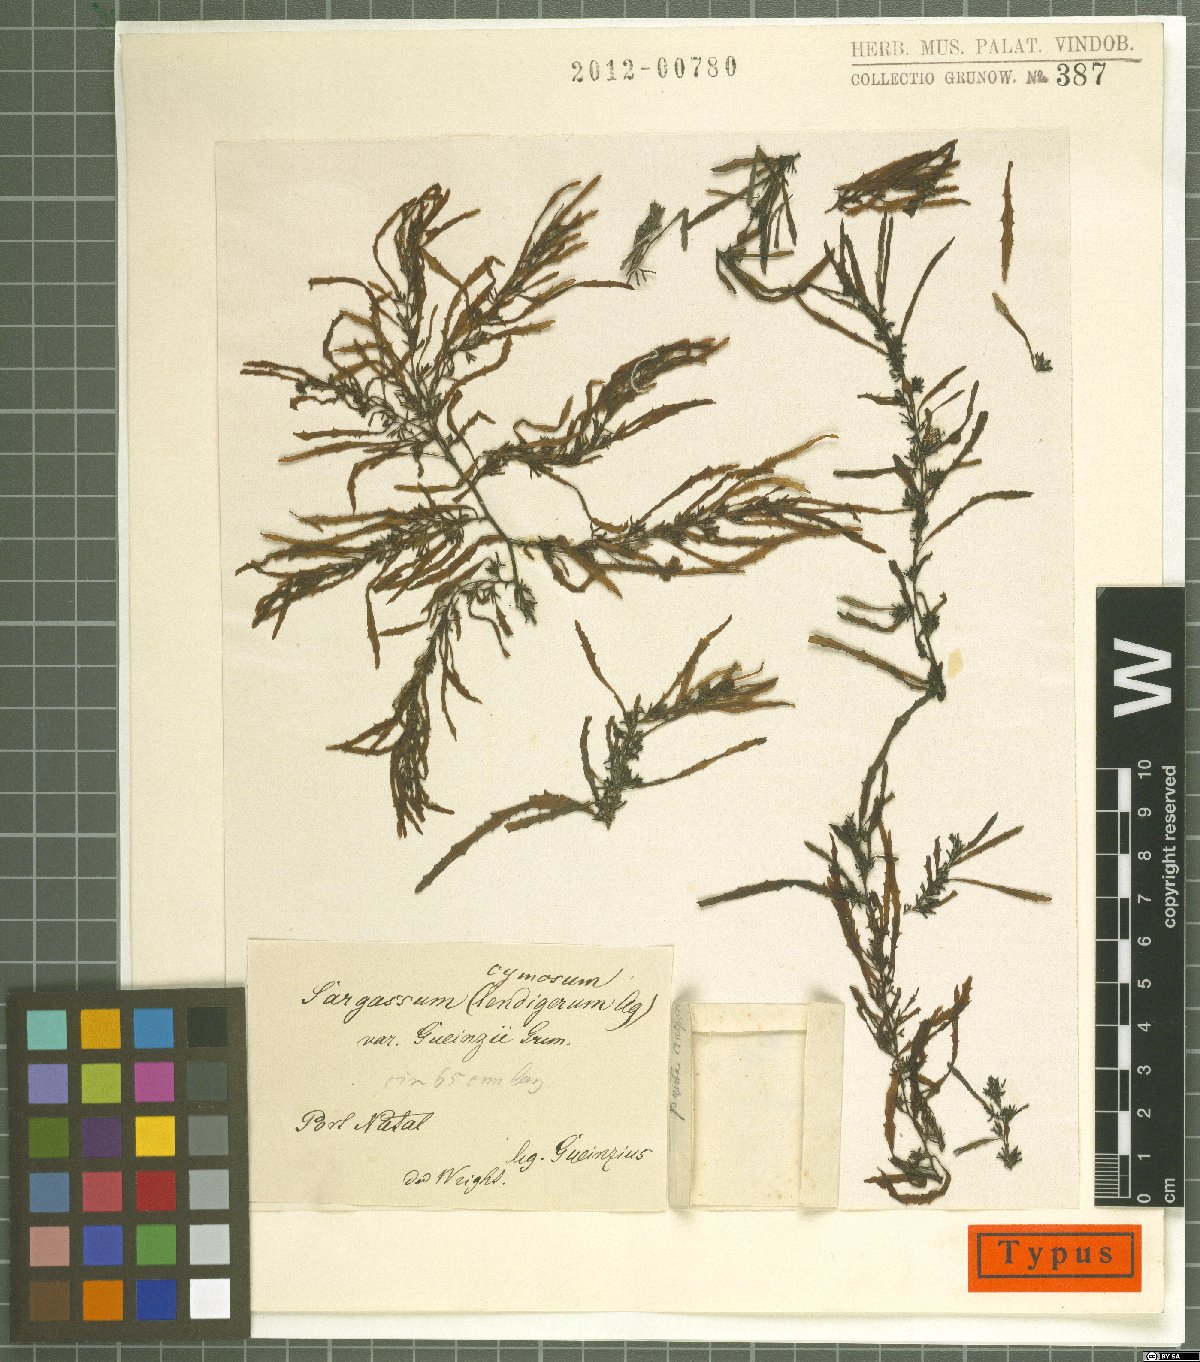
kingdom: Chromista
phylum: Ochrophyta
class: Phaeophyceae
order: Fucales
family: Sargassaceae
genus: Sargassum
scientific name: Sargassum cymosum
